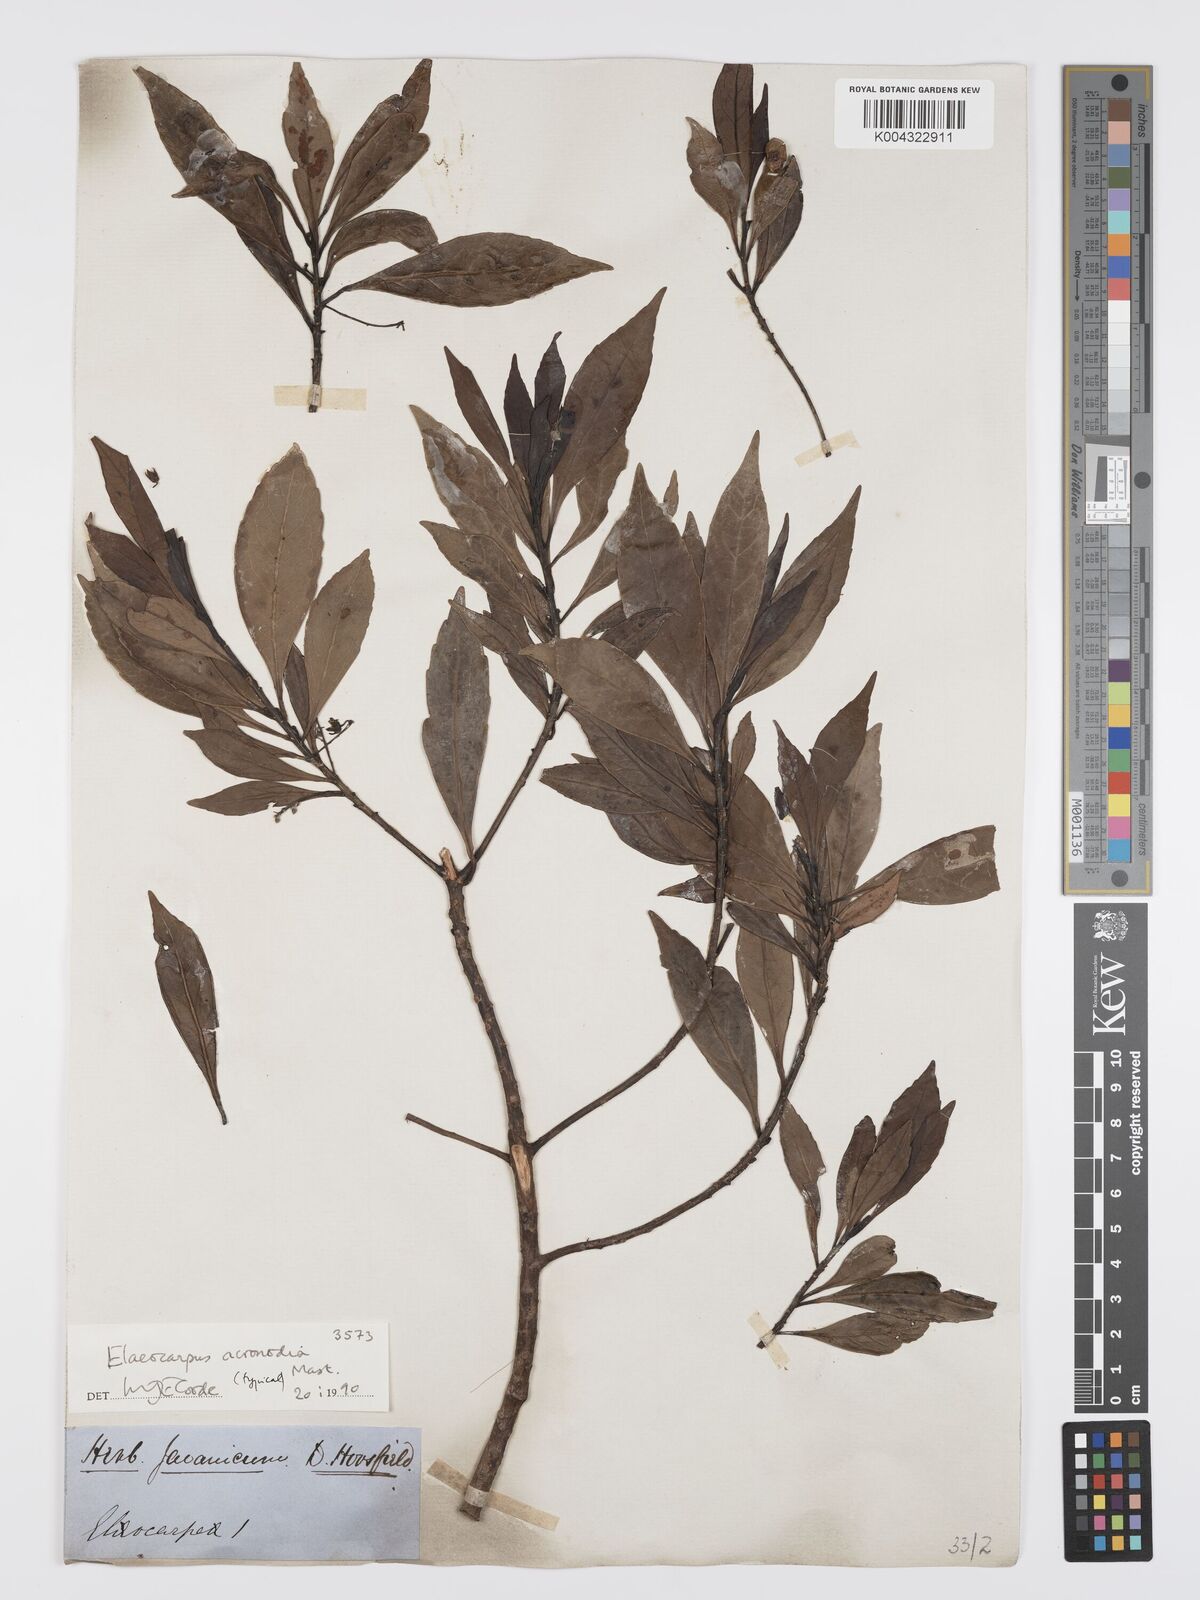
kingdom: Plantae
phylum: Tracheophyta
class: Magnoliopsida
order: Oxalidales
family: Elaeocarpaceae
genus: Elaeocarpus
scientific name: Elaeocarpus acronodia
